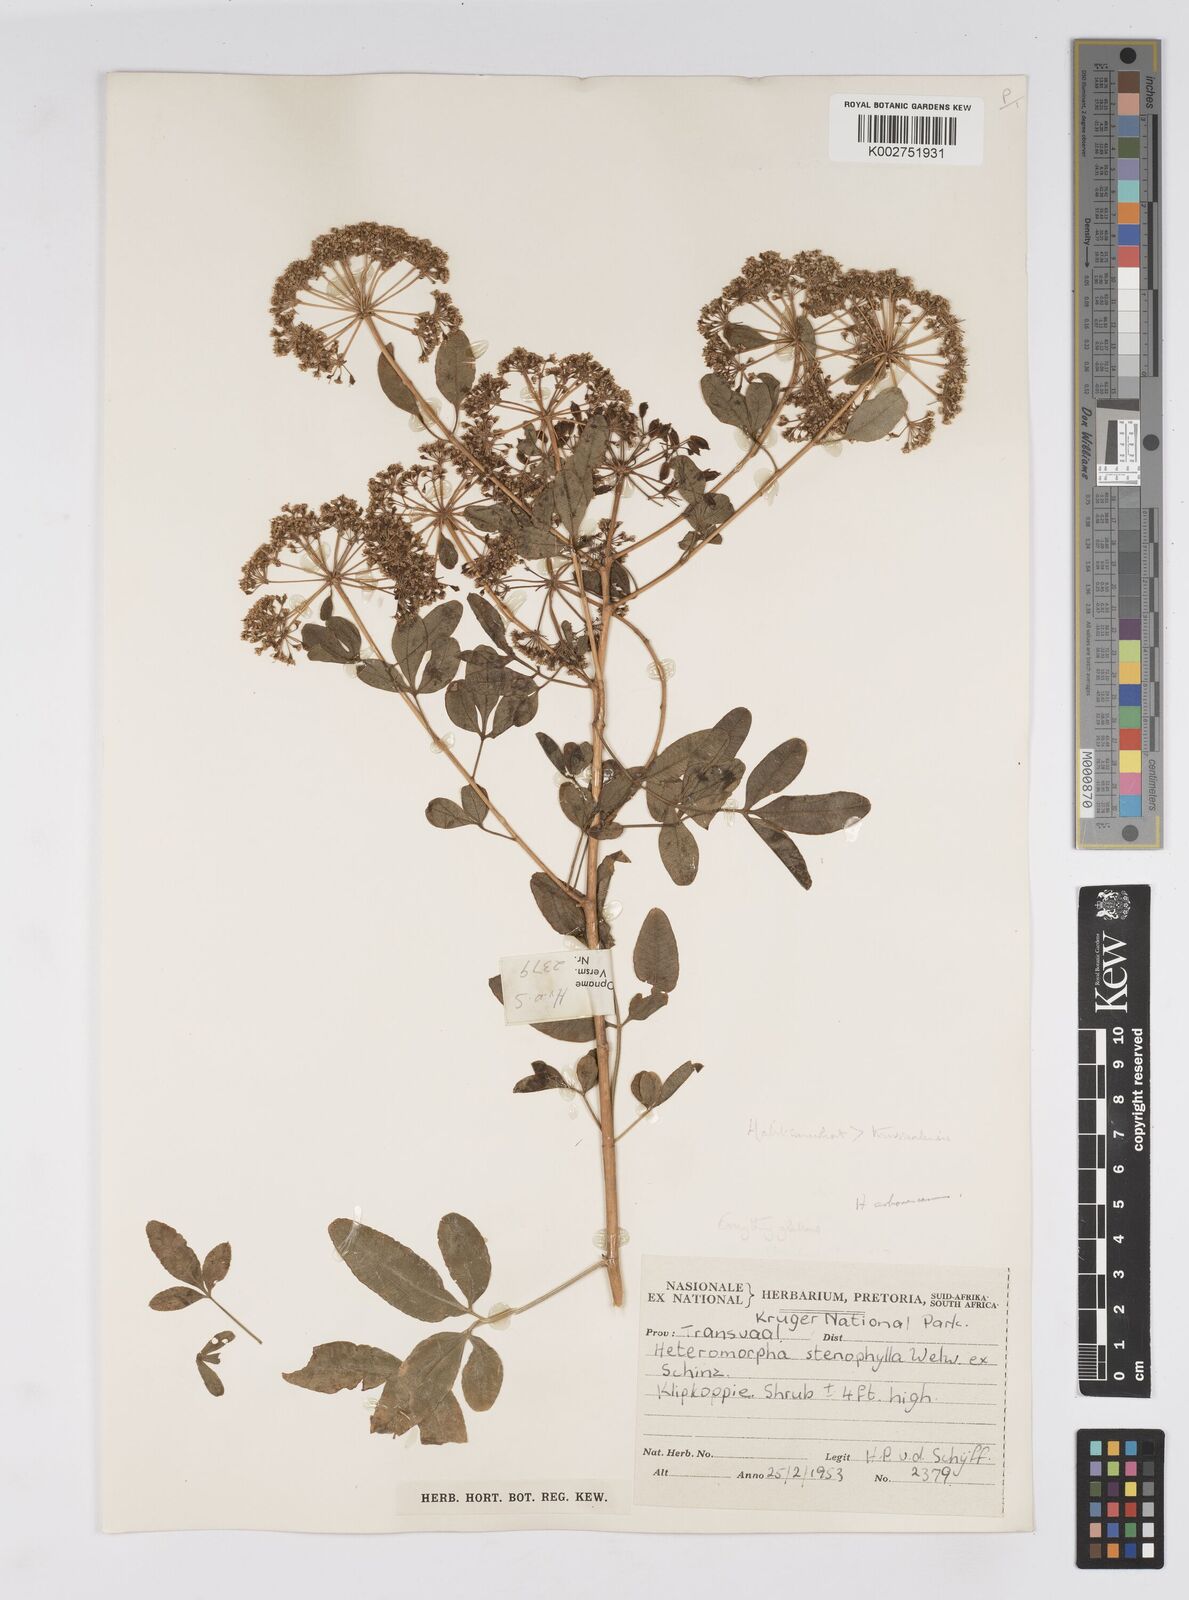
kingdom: Plantae
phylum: Tracheophyta
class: Magnoliopsida
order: Apiales
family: Apiaceae
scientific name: Apiaceae
